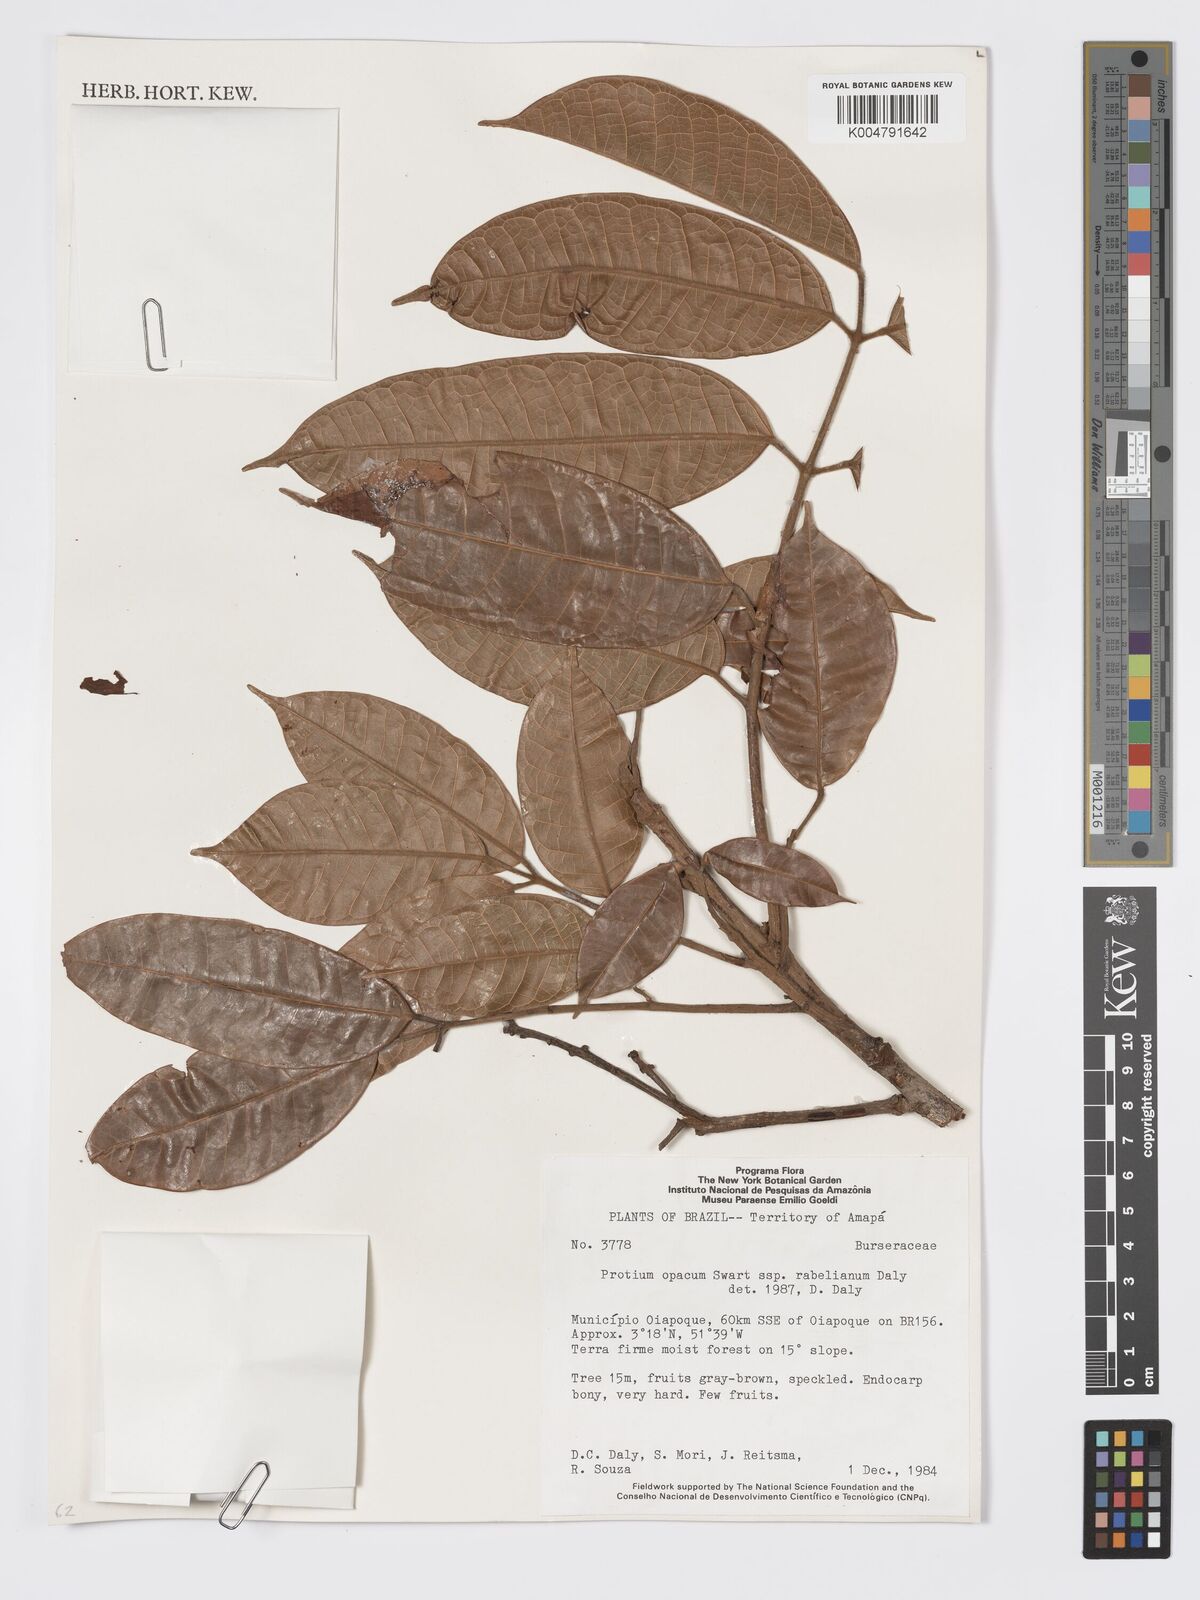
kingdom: Plantae
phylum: Tracheophyta
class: Magnoliopsida
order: Sapindales
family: Burseraceae
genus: Protium
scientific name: Protium opacum
